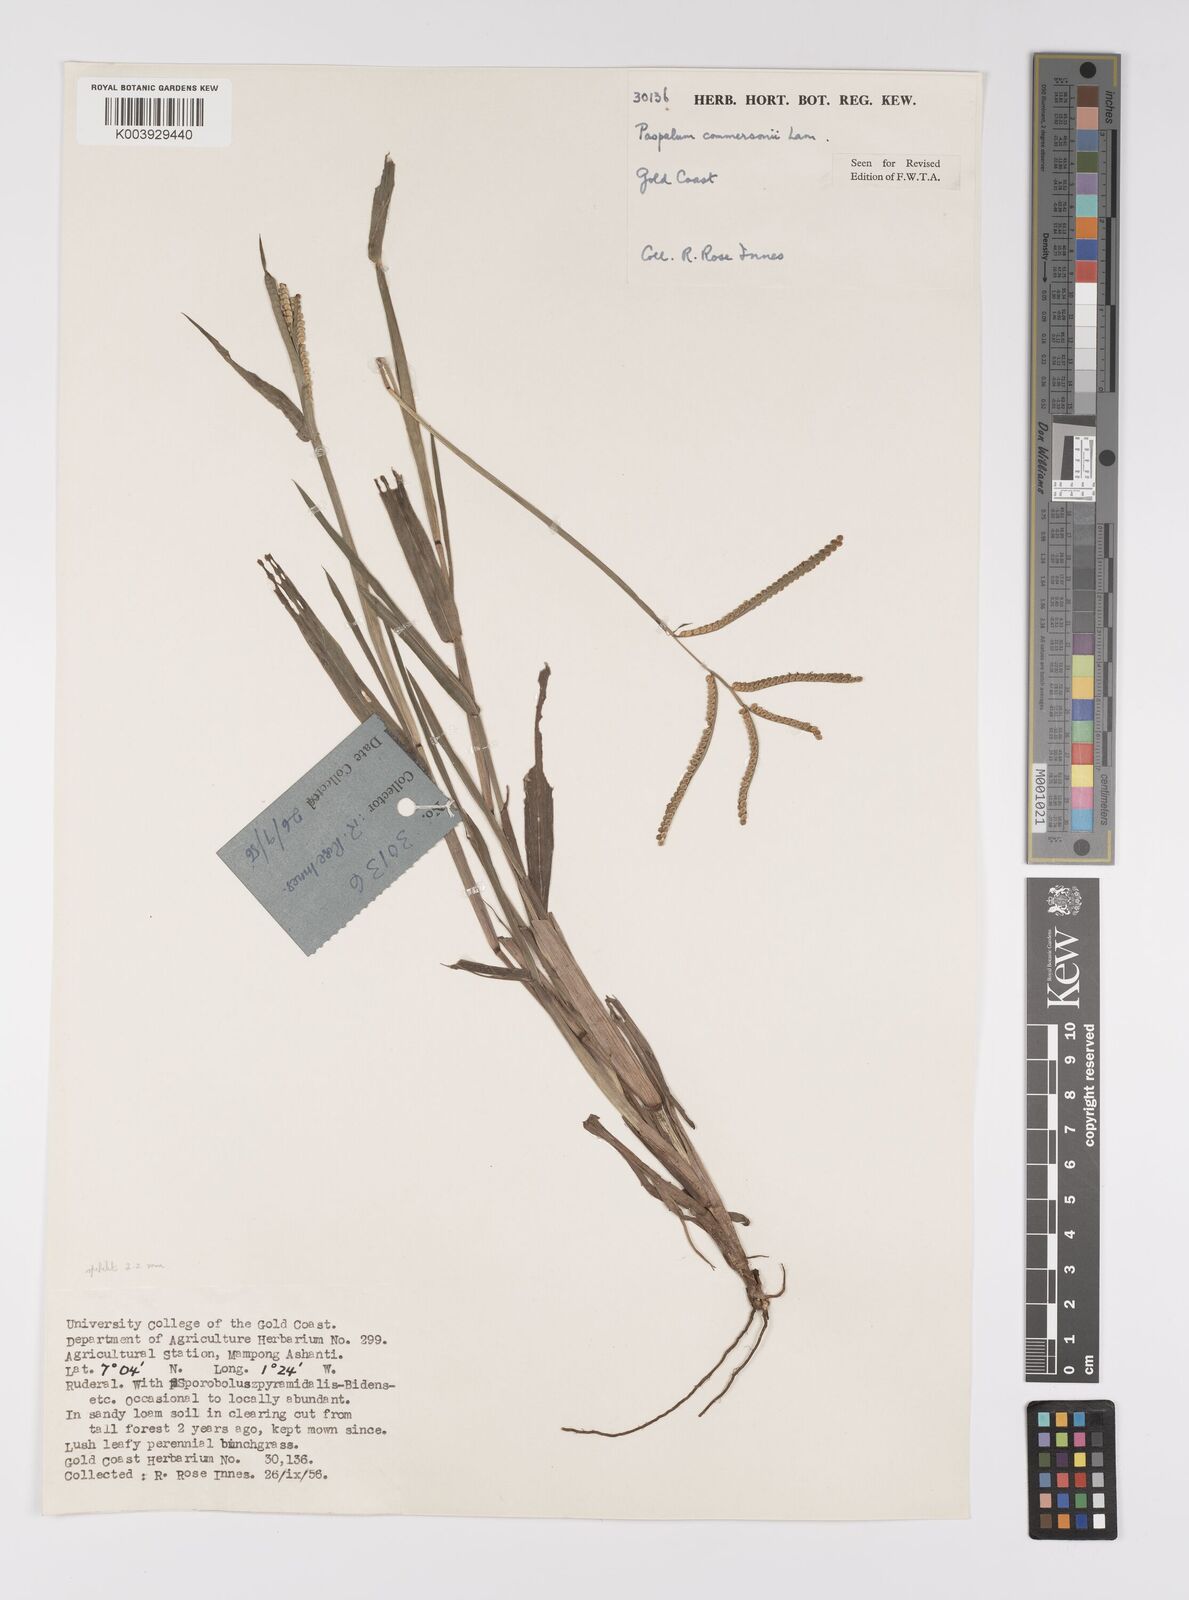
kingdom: Plantae
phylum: Tracheophyta
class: Liliopsida
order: Poales
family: Poaceae
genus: Paspalum
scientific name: Paspalum scrobiculatum
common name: Kodo millet
